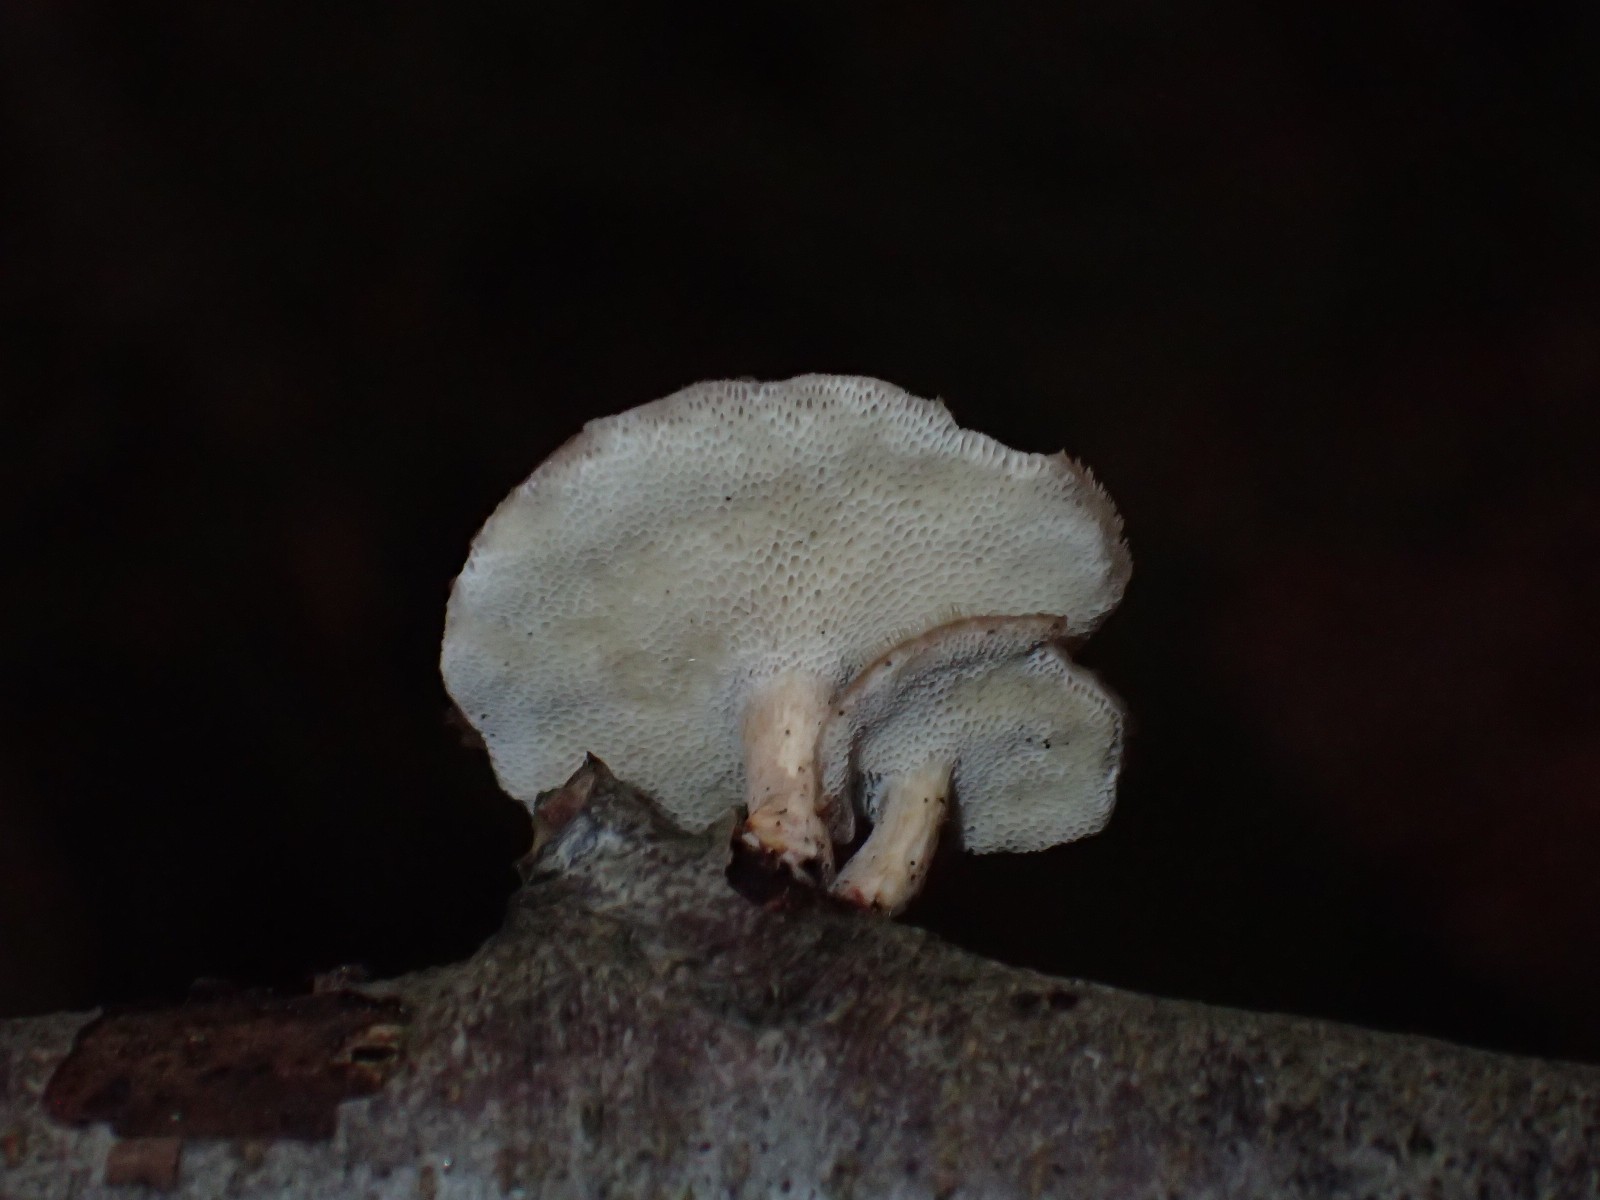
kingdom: Fungi
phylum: Basidiomycota
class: Agaricomycetes
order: Polyporales
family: Polyporaceae
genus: Lentinus
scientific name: Lentinus brumalis
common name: vinter-stilkporesvamp
